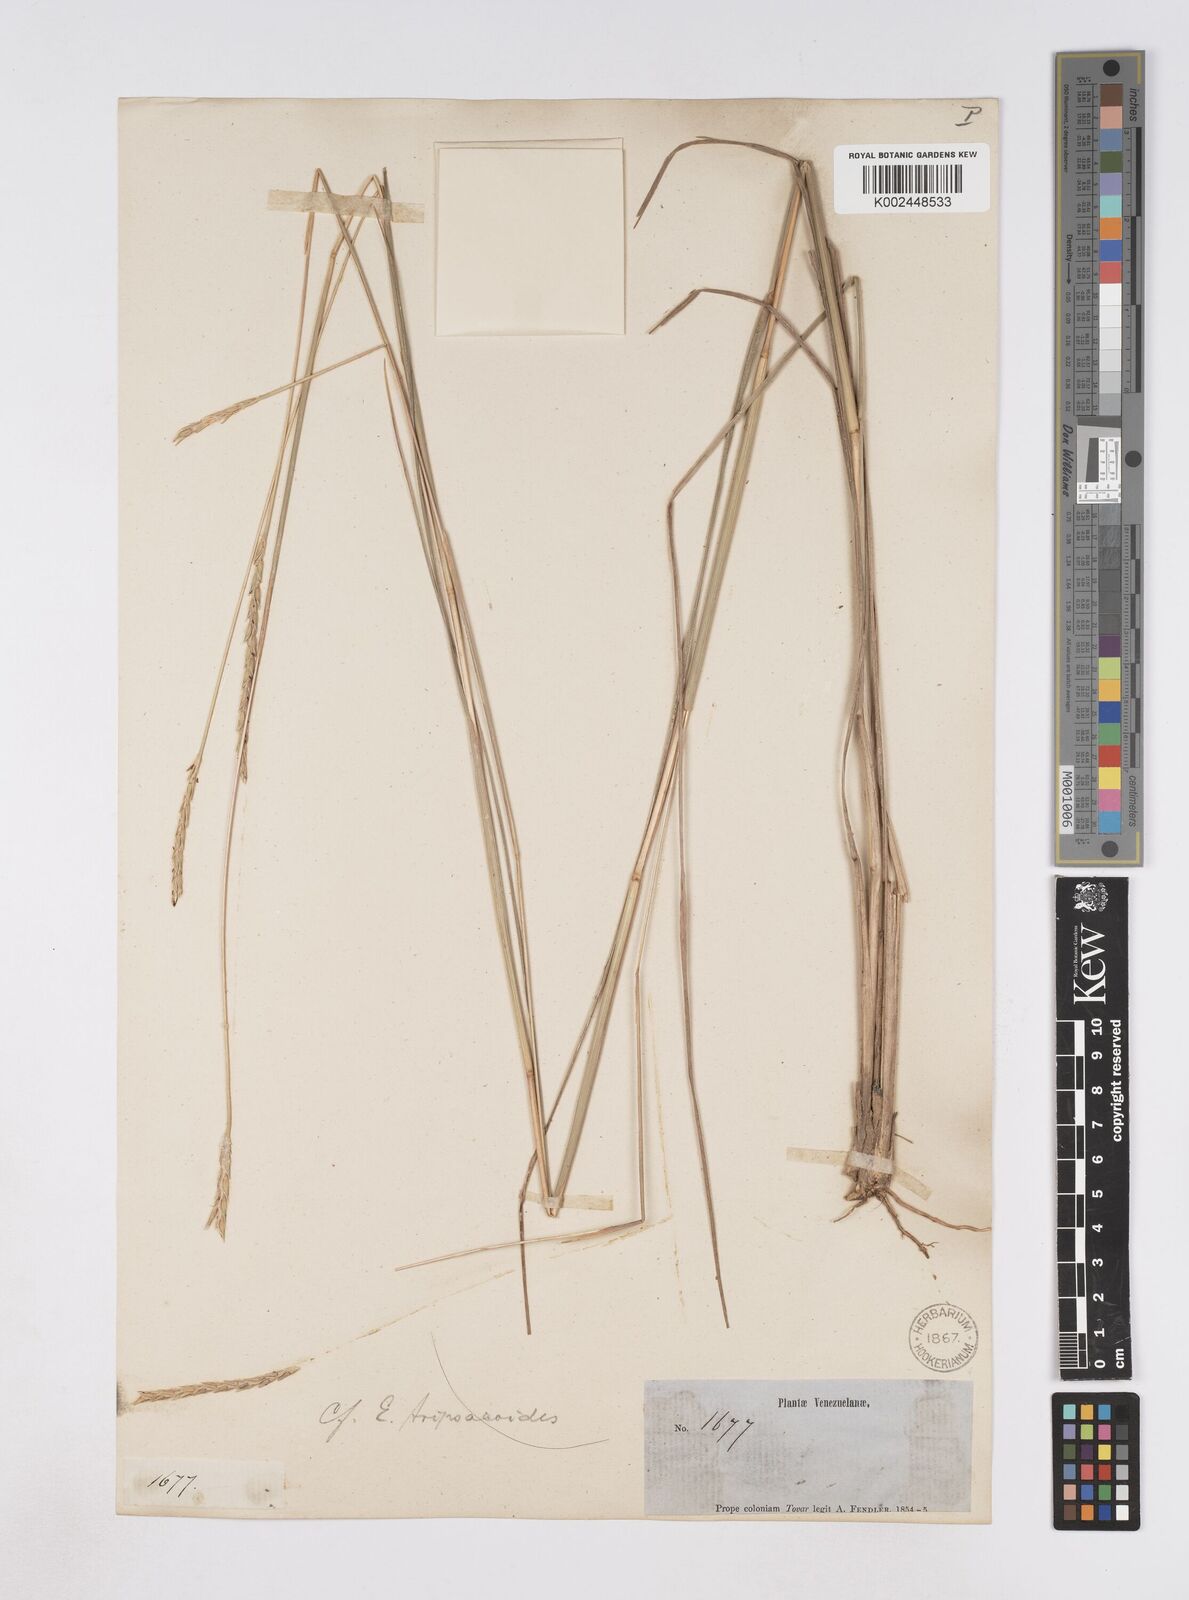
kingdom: Plantae
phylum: Tracheophyta
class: Liliopsida
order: Poales
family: Poaceae
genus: Elionurus
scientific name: Elionurus
